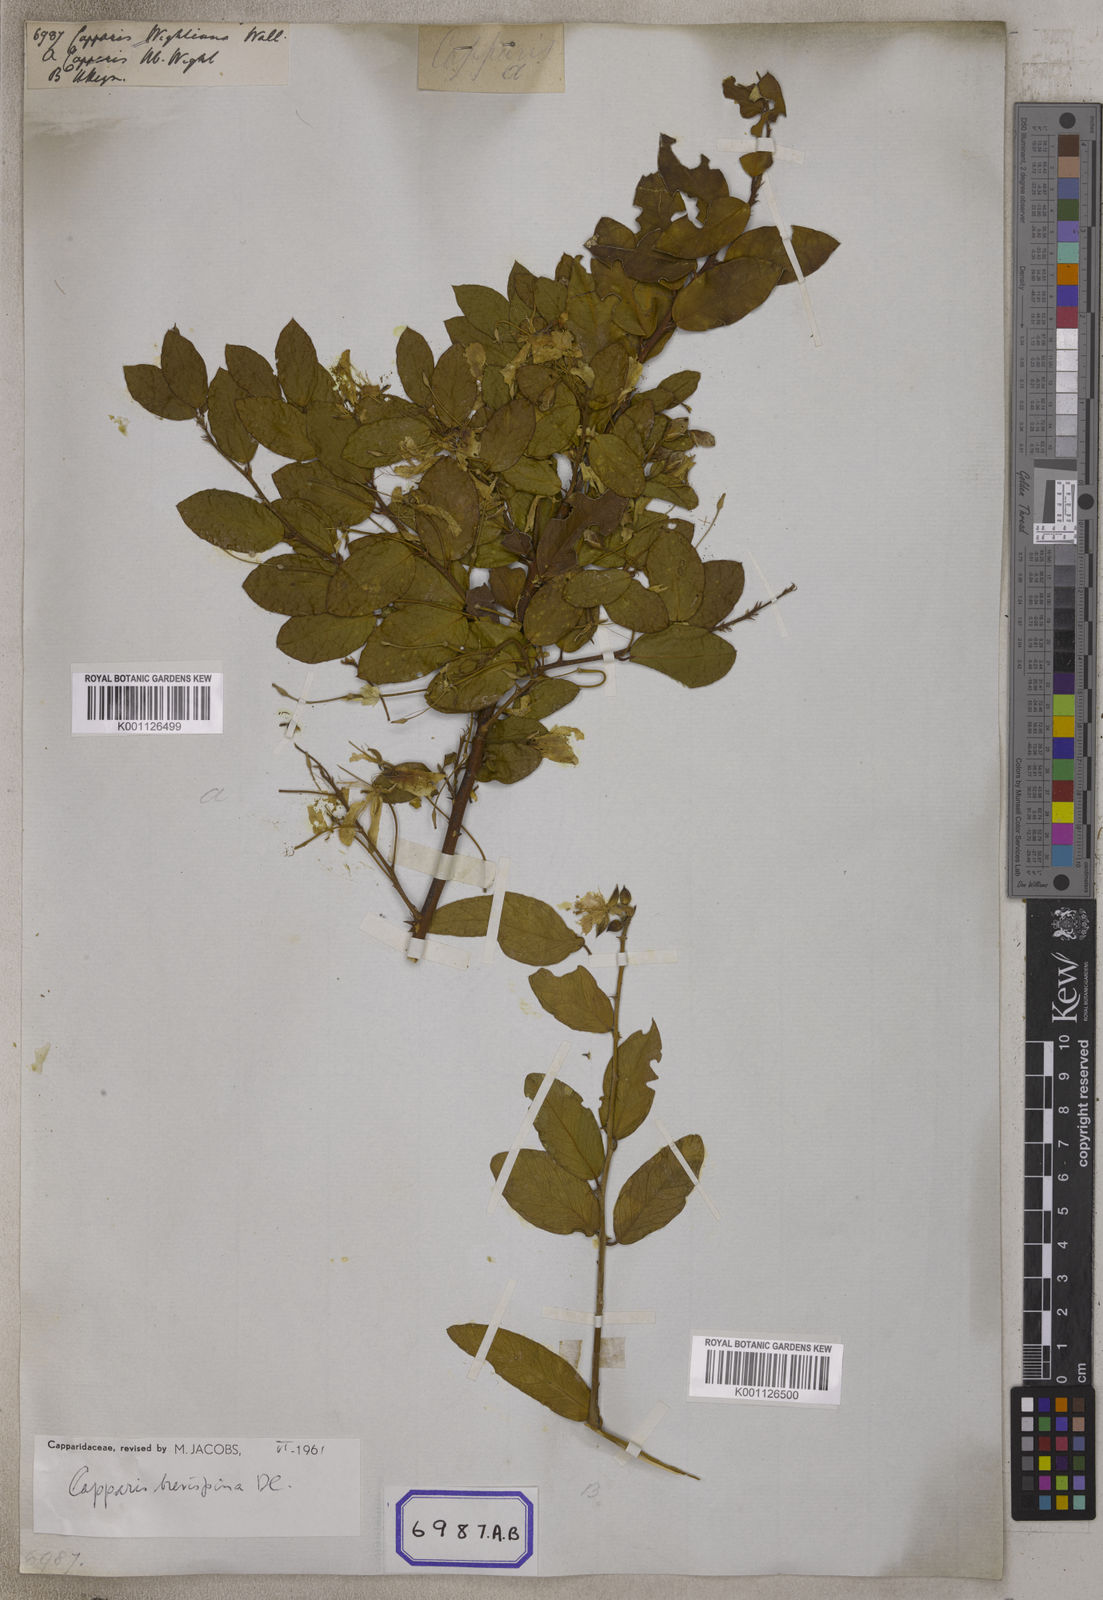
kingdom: Plantae
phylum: Tracheophyta
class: Magnoliopsida
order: Brassicales
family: Capparaceae
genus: Capparis
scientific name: Capparis zeylanica
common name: Ceylon caper
